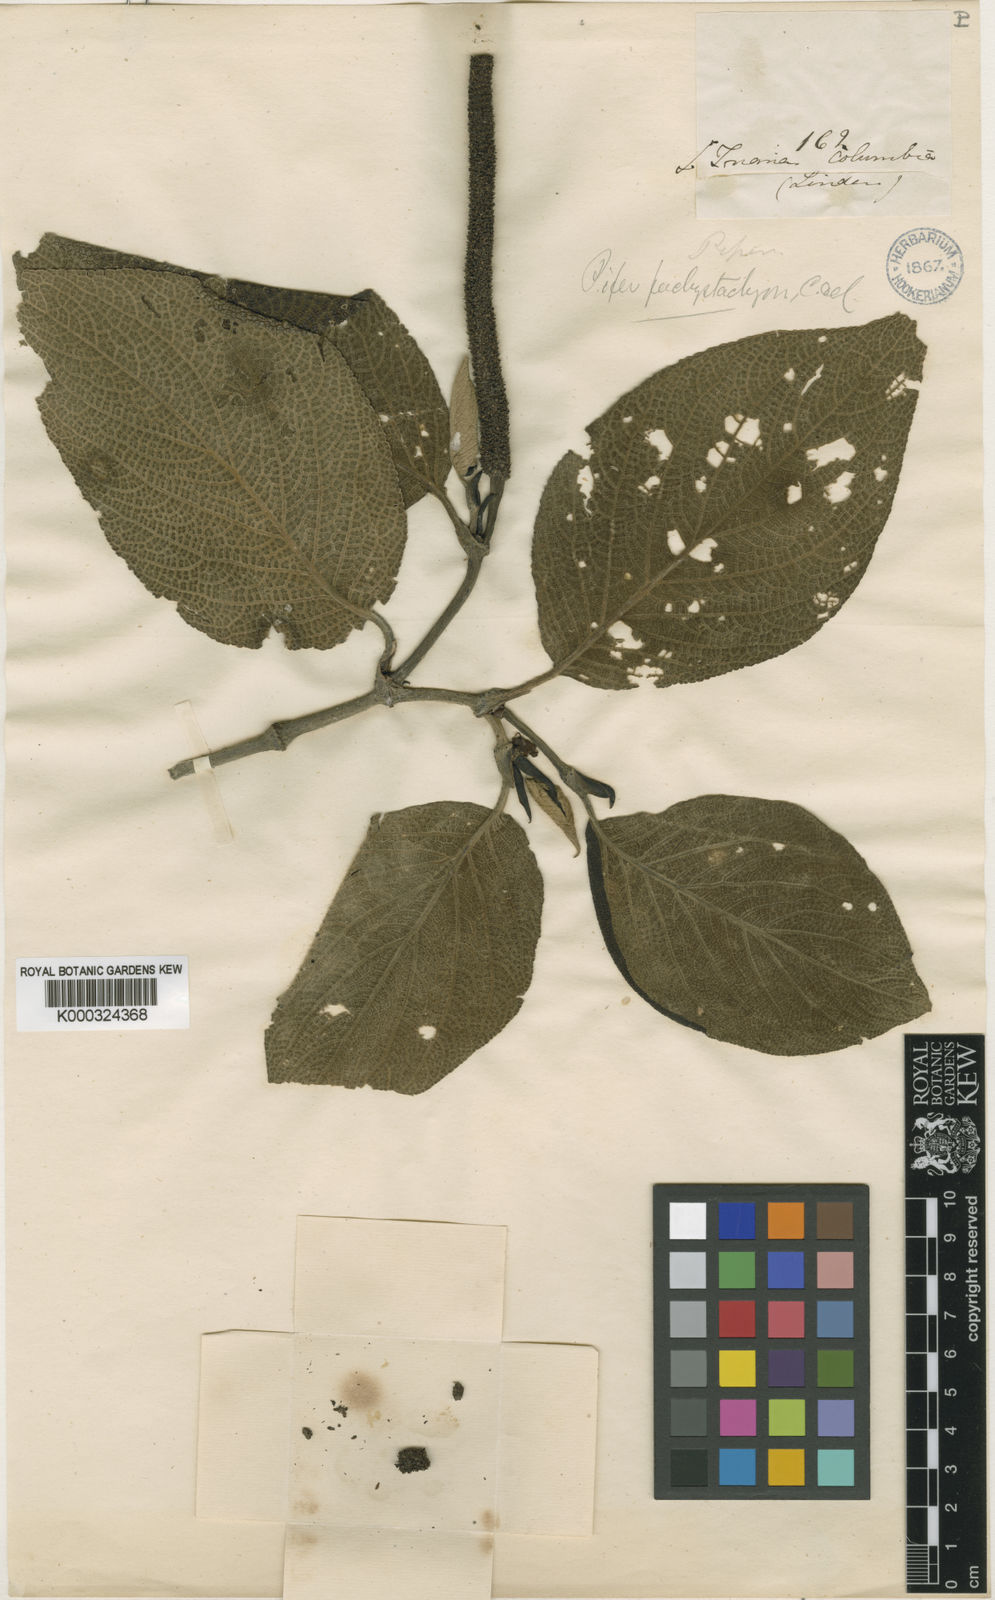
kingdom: Plantae
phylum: Tracheophyta
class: Magnoliopsida
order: Piperales
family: Piperaceae
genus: Piper
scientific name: Piper lacunosum
